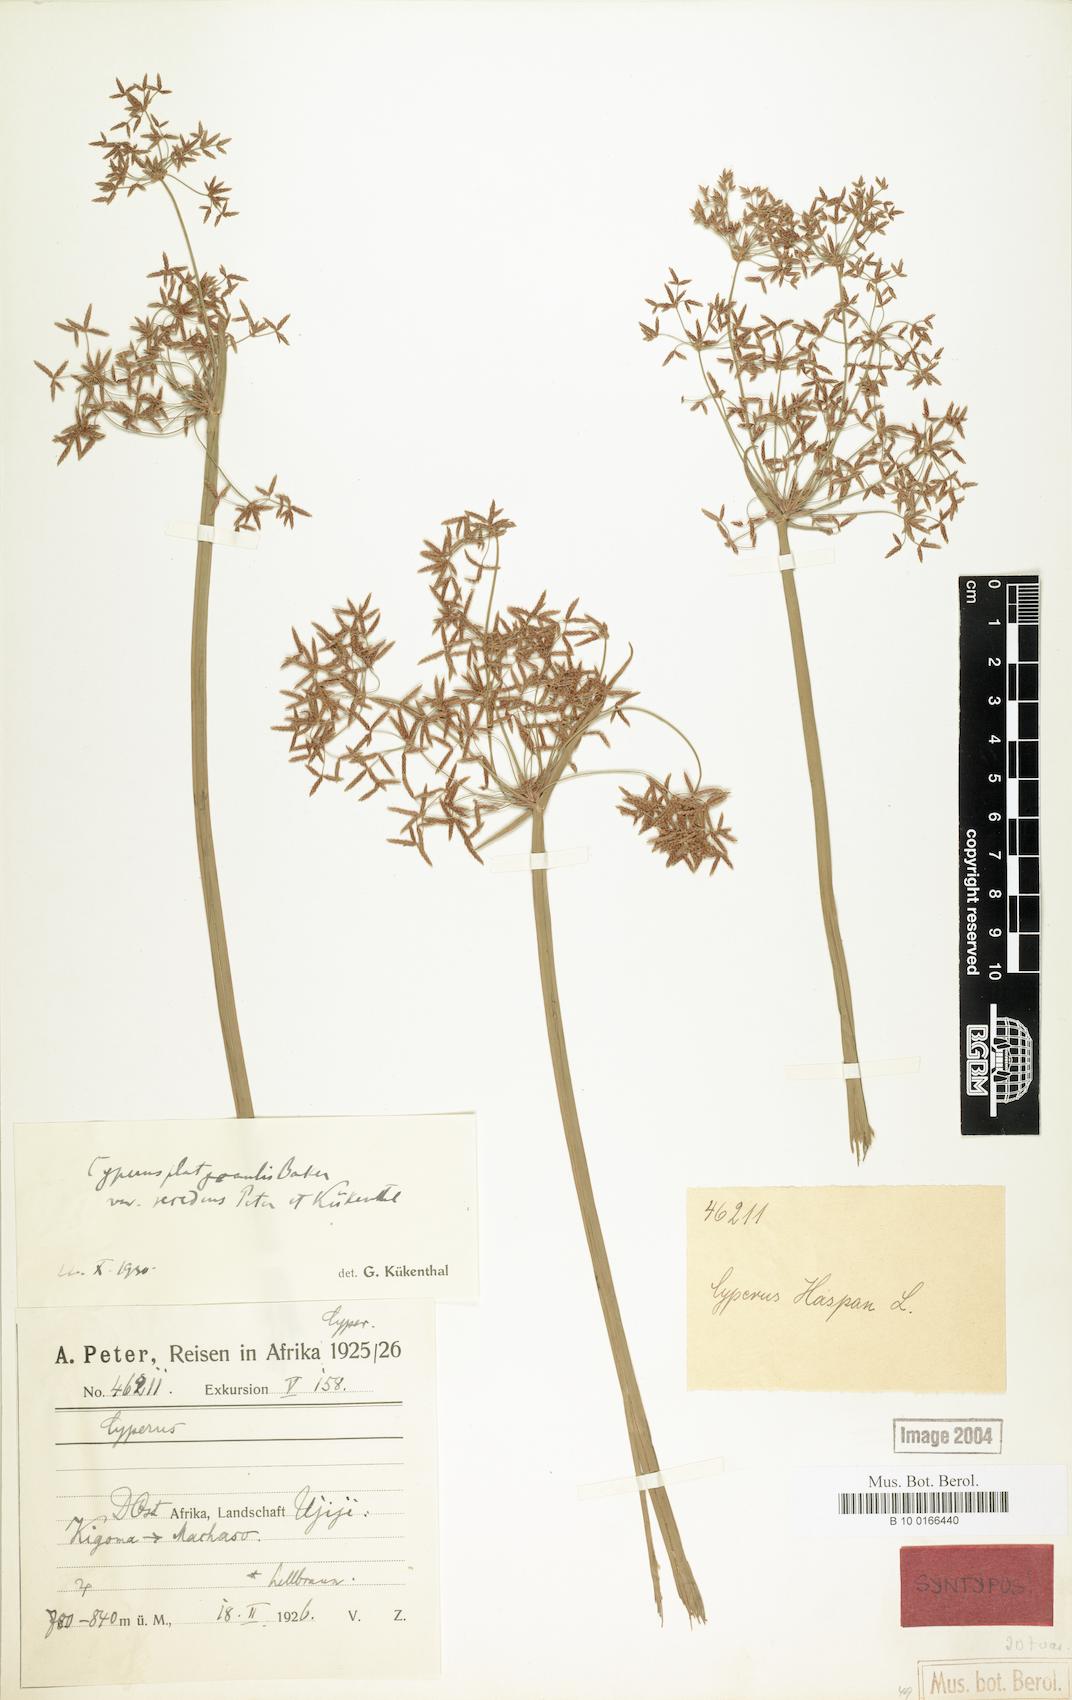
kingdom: Plantae
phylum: Tracheophyta
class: Liliopsida
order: Poales
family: Cyperaceae
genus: Cyperus
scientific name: Cyperus denudatus
